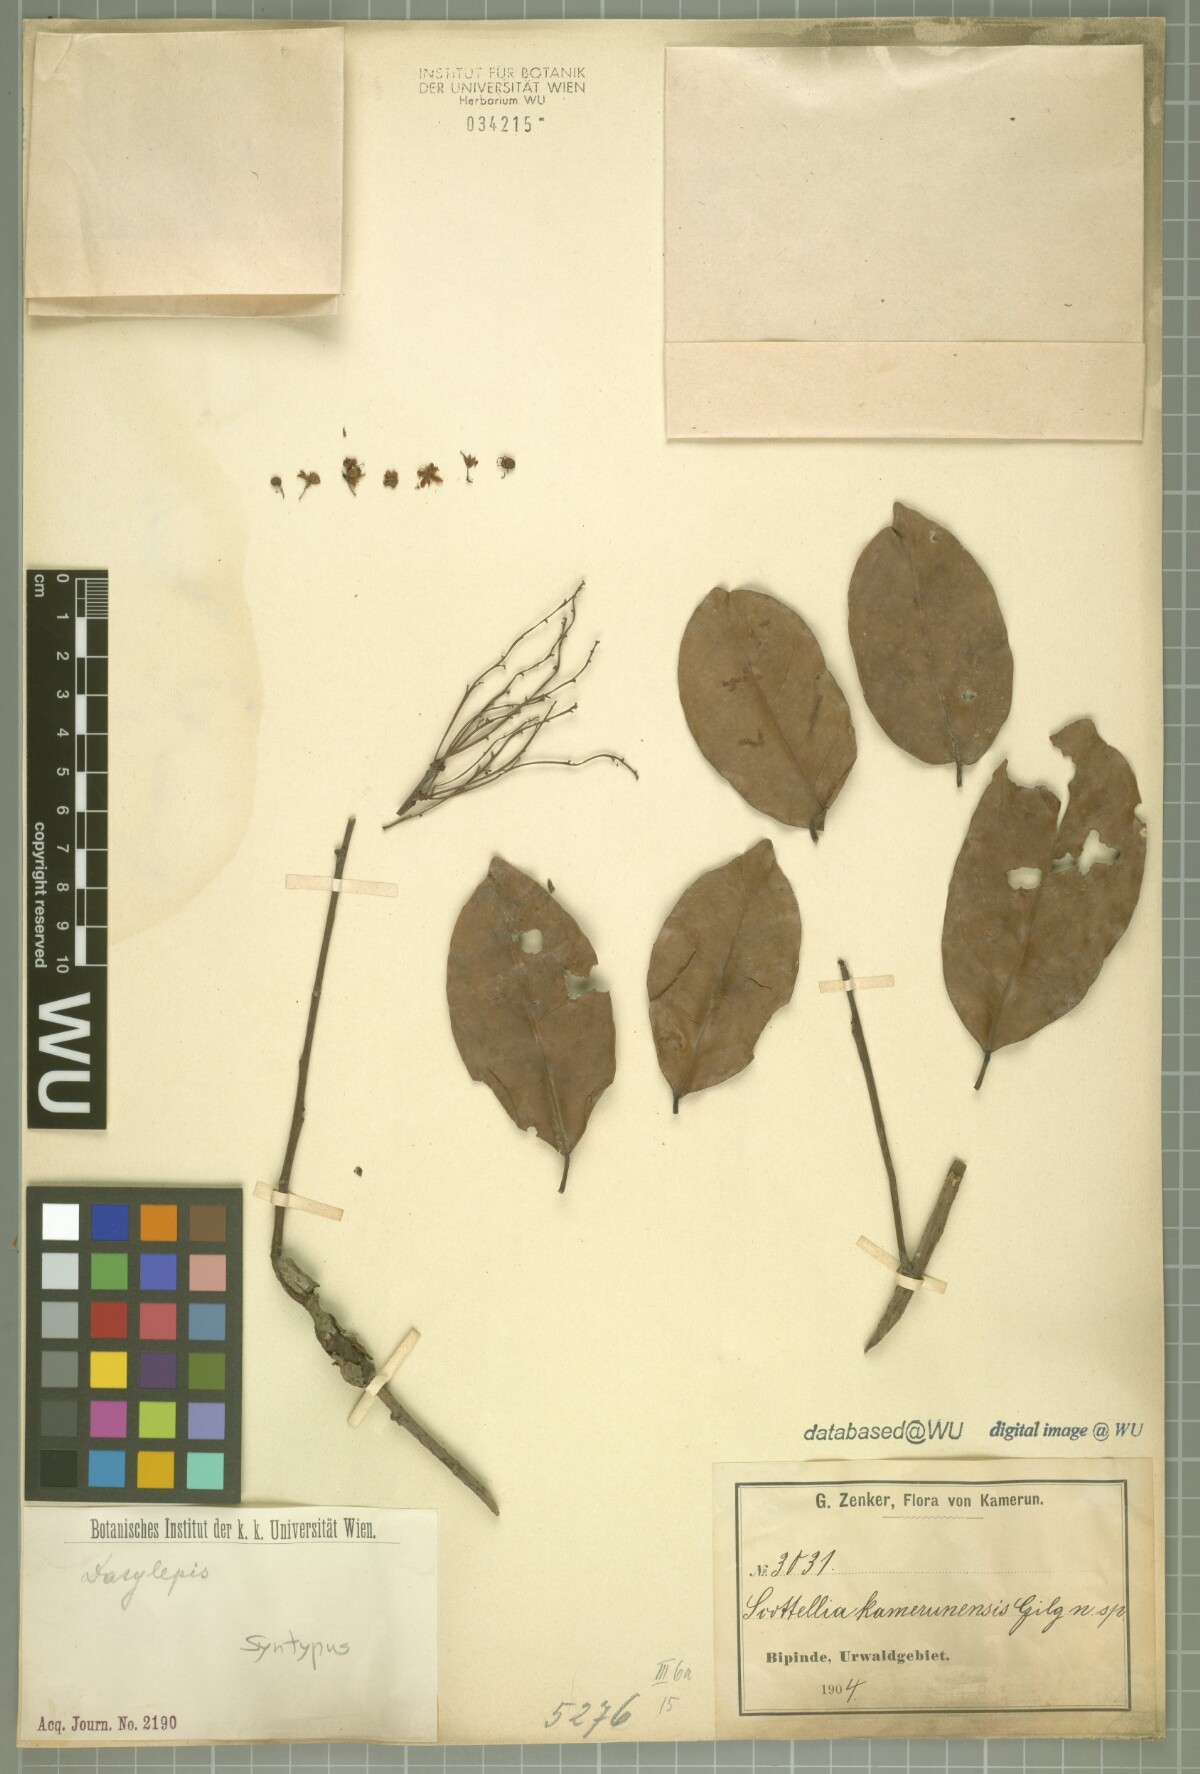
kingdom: Plantae
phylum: Tracheophyta
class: Magnoliopsida
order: Malpighiales
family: Achariaceae
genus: Scottellia
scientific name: Scottellia klaineana
